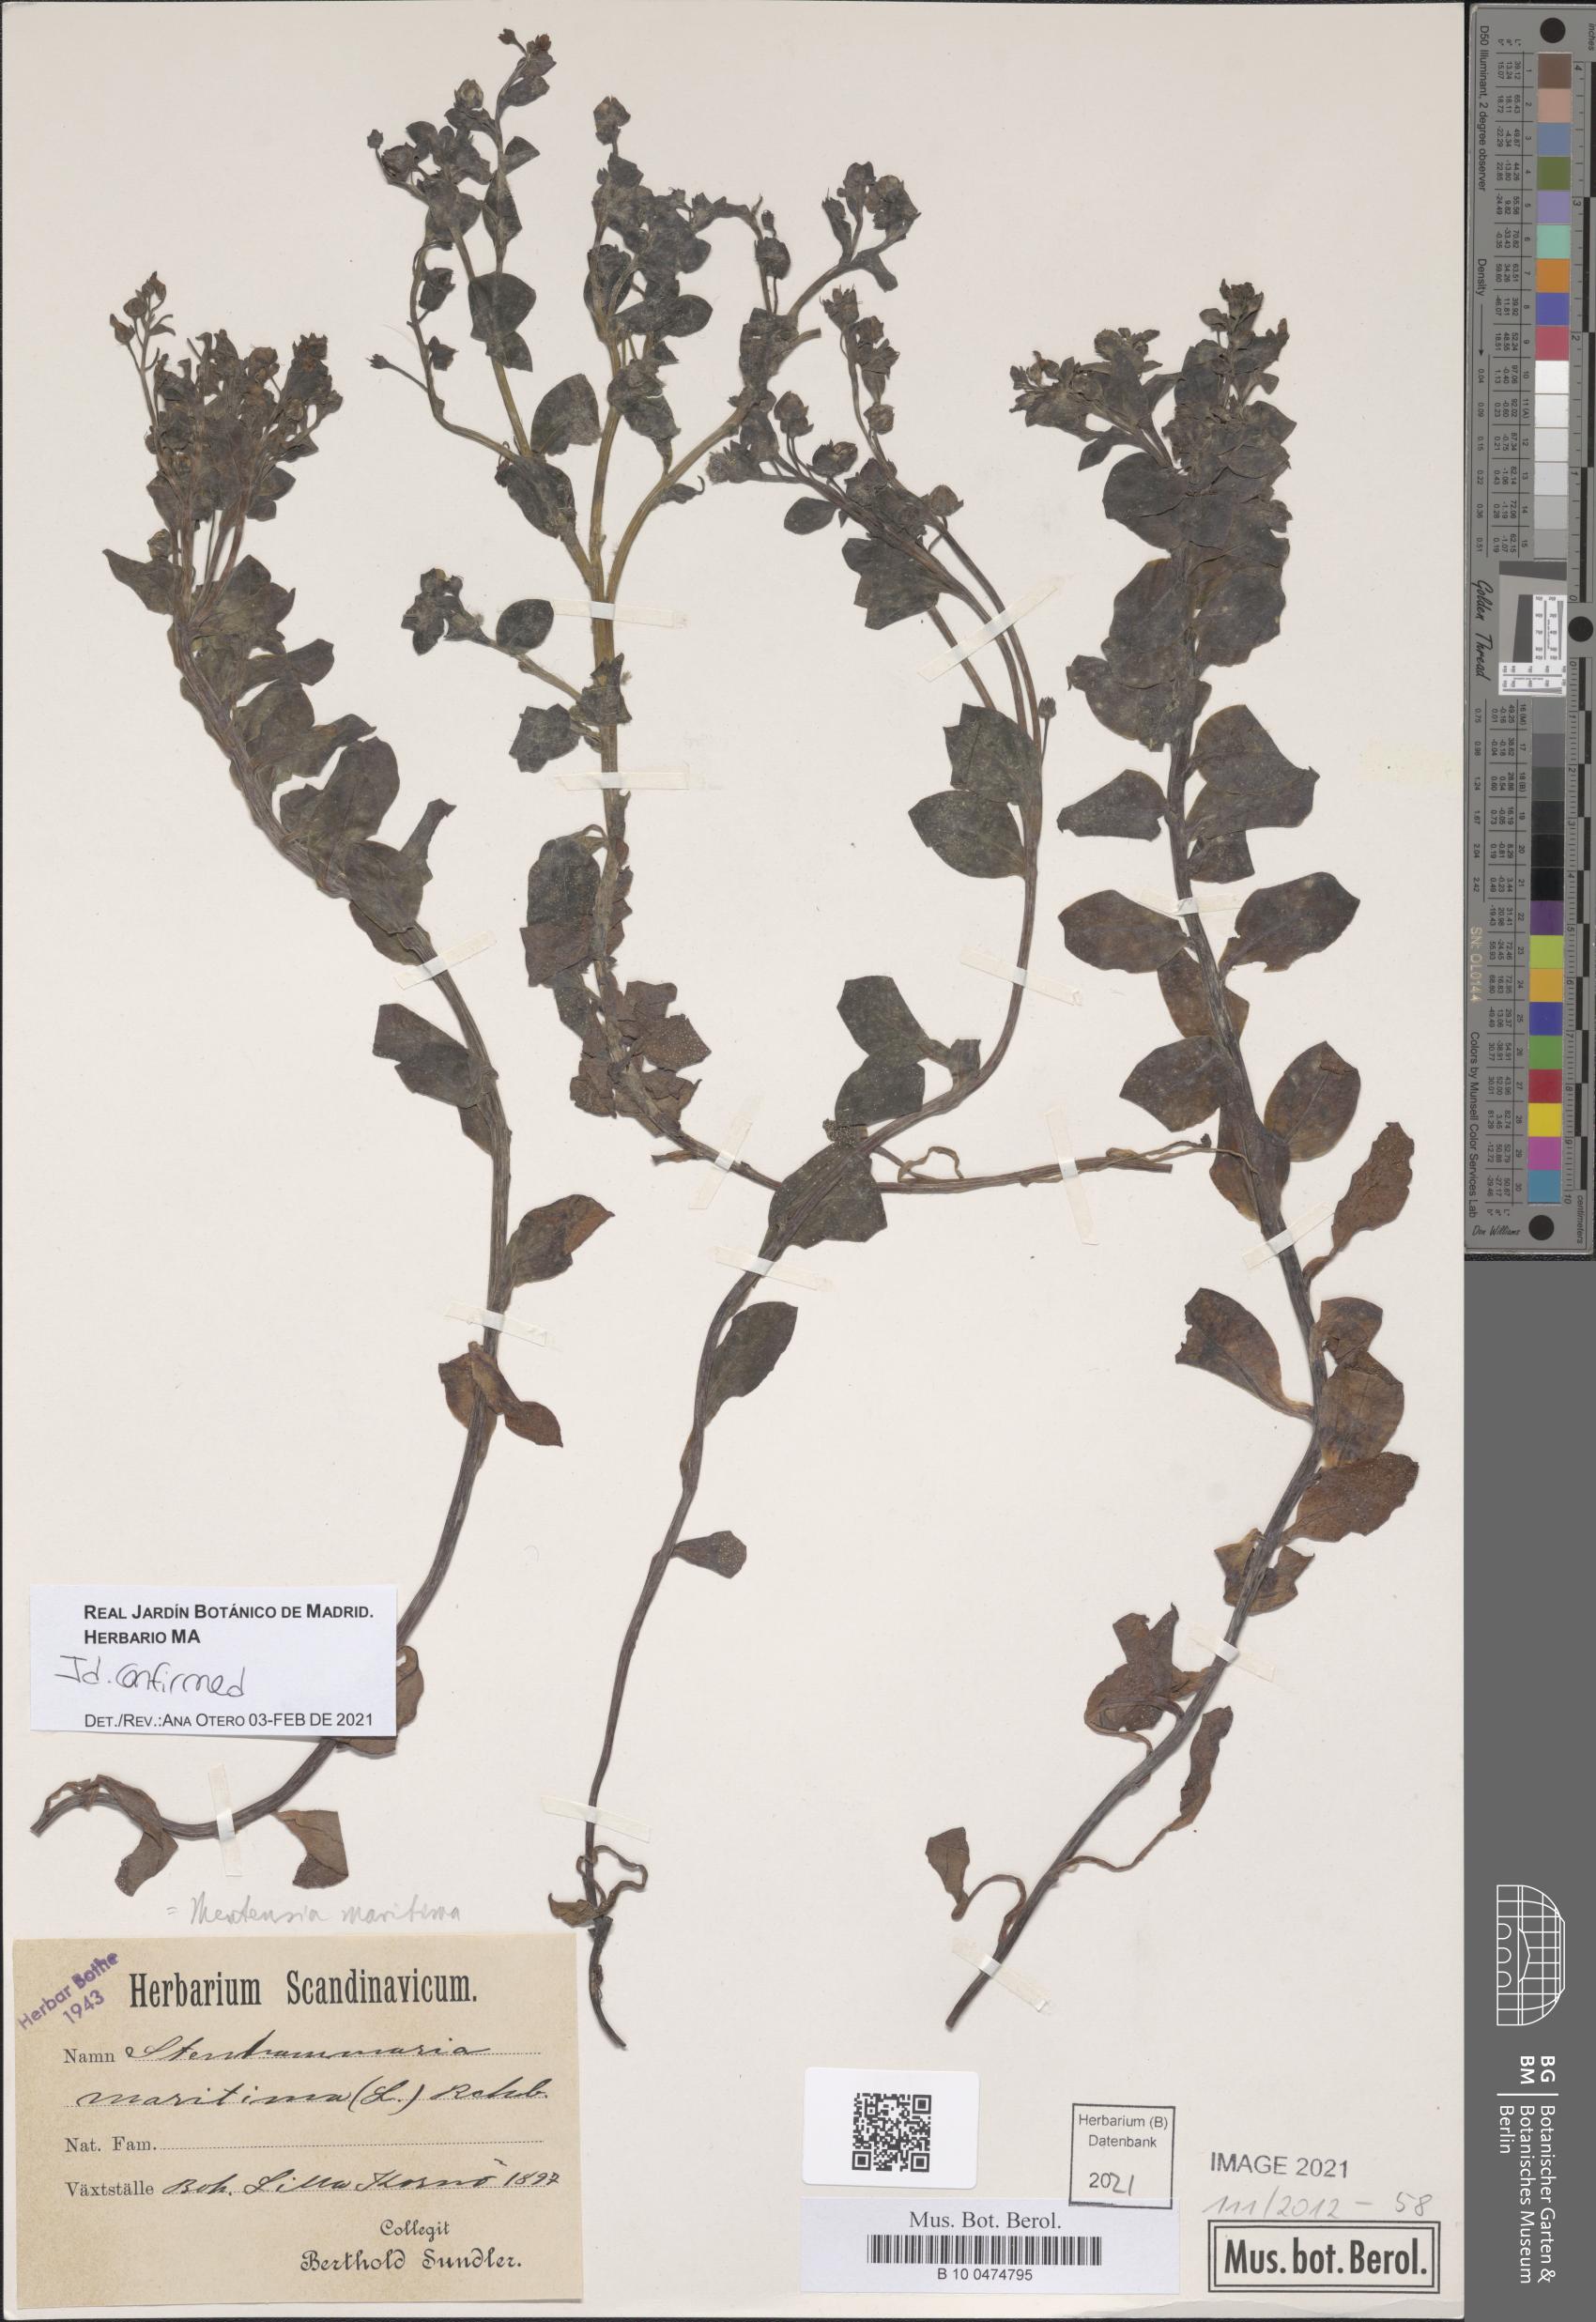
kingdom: Plantae
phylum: Tracheophyta
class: Magnoliopsida
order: Boraginales
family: Boraginaceae
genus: Mertensia
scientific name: Mertensia maritima
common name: Oysterplant
